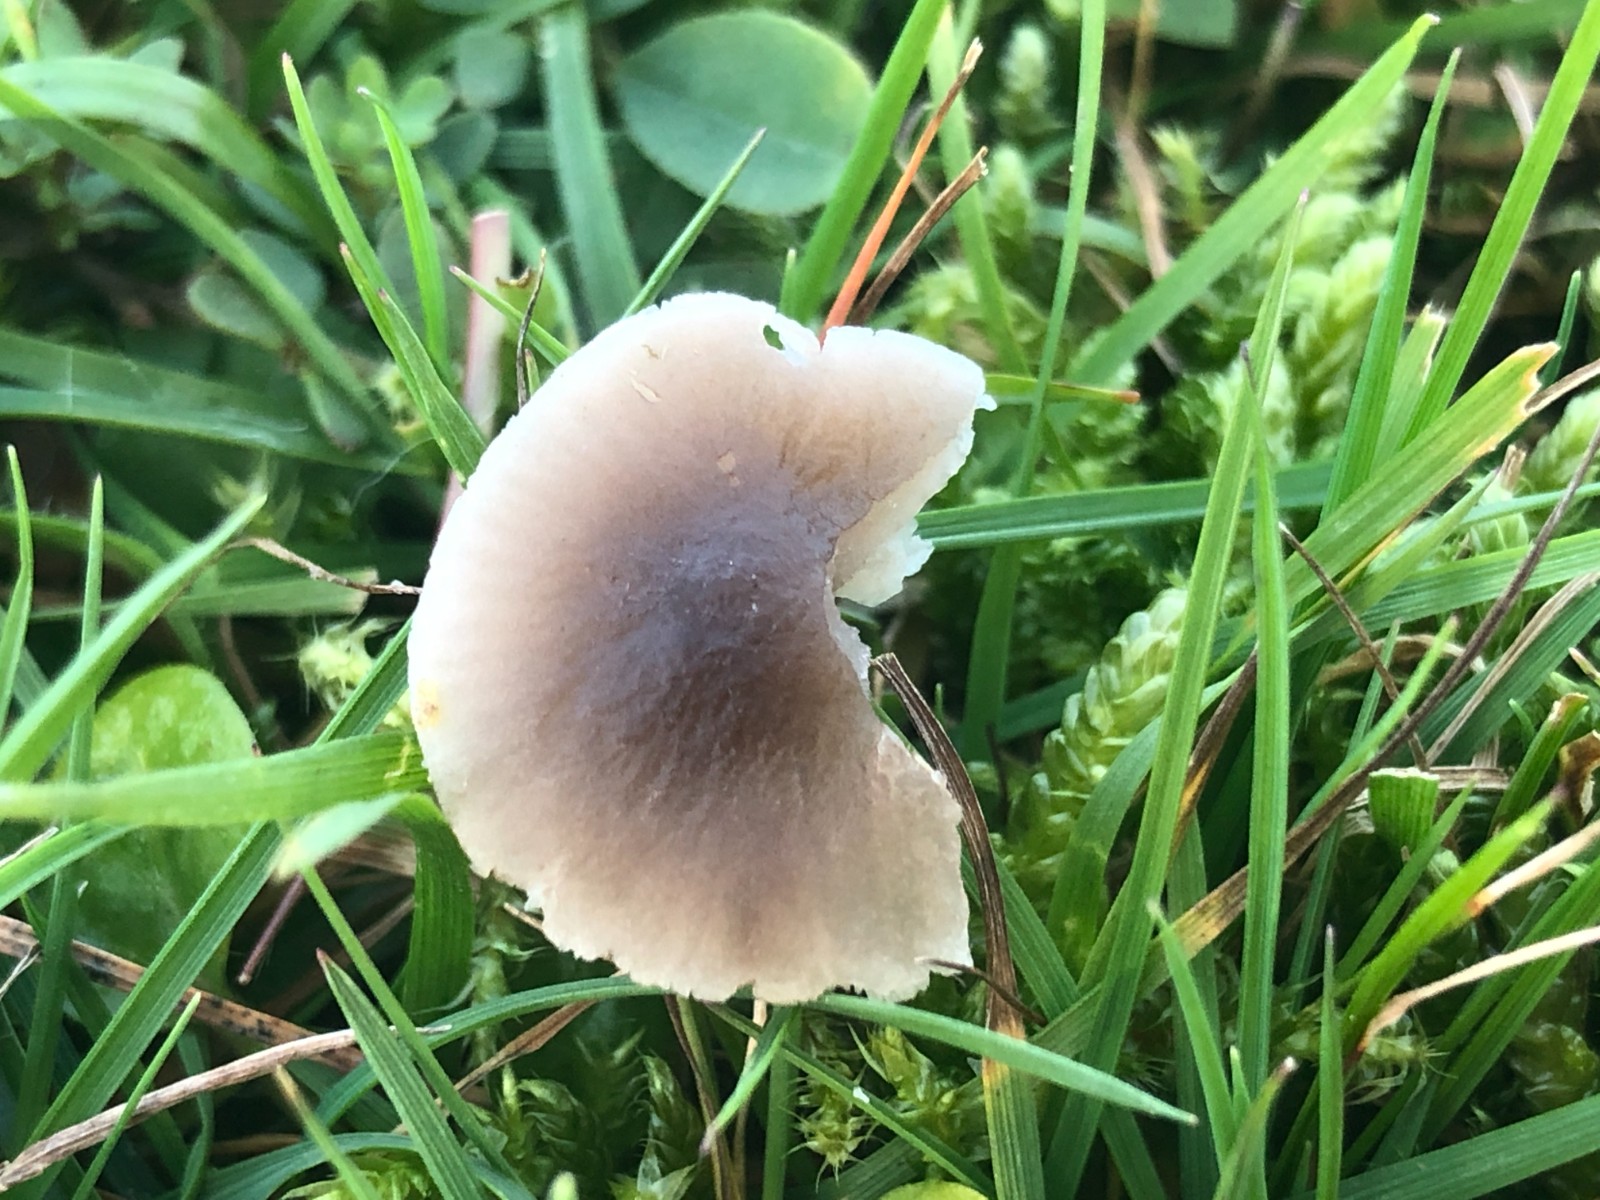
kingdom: Fungi
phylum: Basidiomycota
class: Agaricomycetes
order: Agaricales
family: Tricholomataceae
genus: Dermoloma
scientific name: Dermoloma cuneifolium
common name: eng-nonnehat
